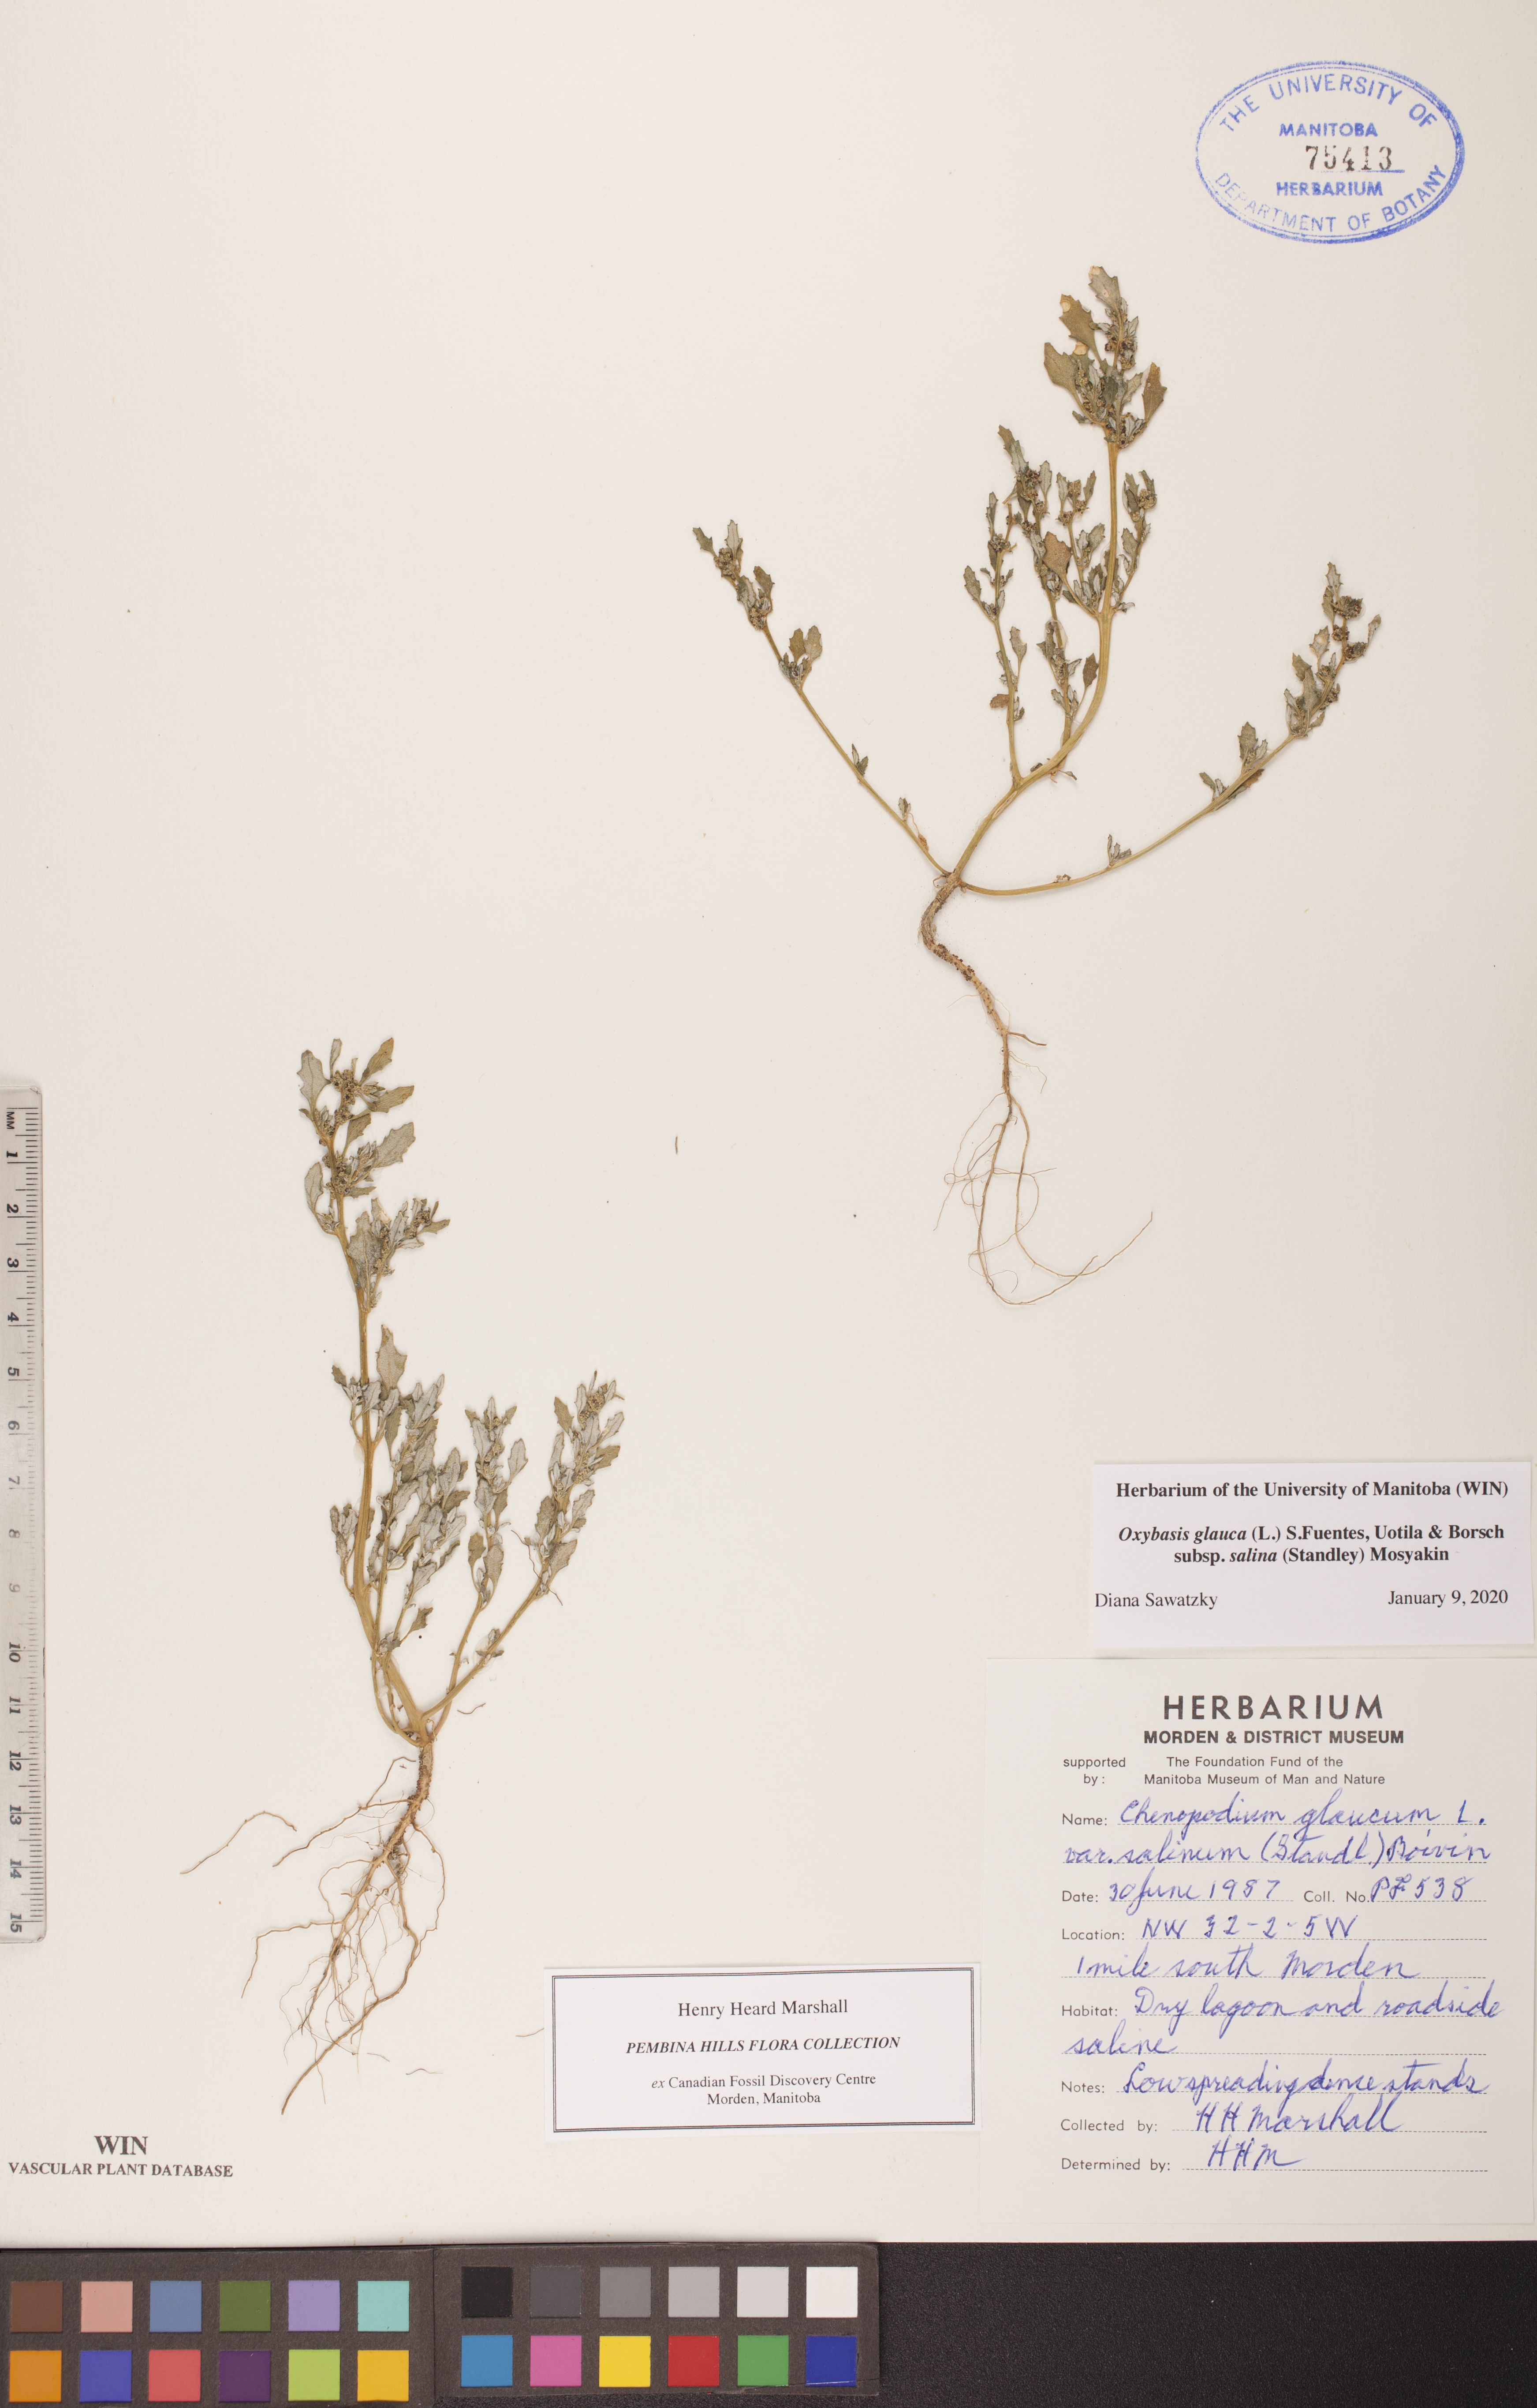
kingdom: Plantae
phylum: Tracheophyta
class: Magnoliopsida
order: Caryophyllales
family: Amaranthaceae
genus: Oxybasis
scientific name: Oxybasis salina
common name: Rocky mountain goosefoot
